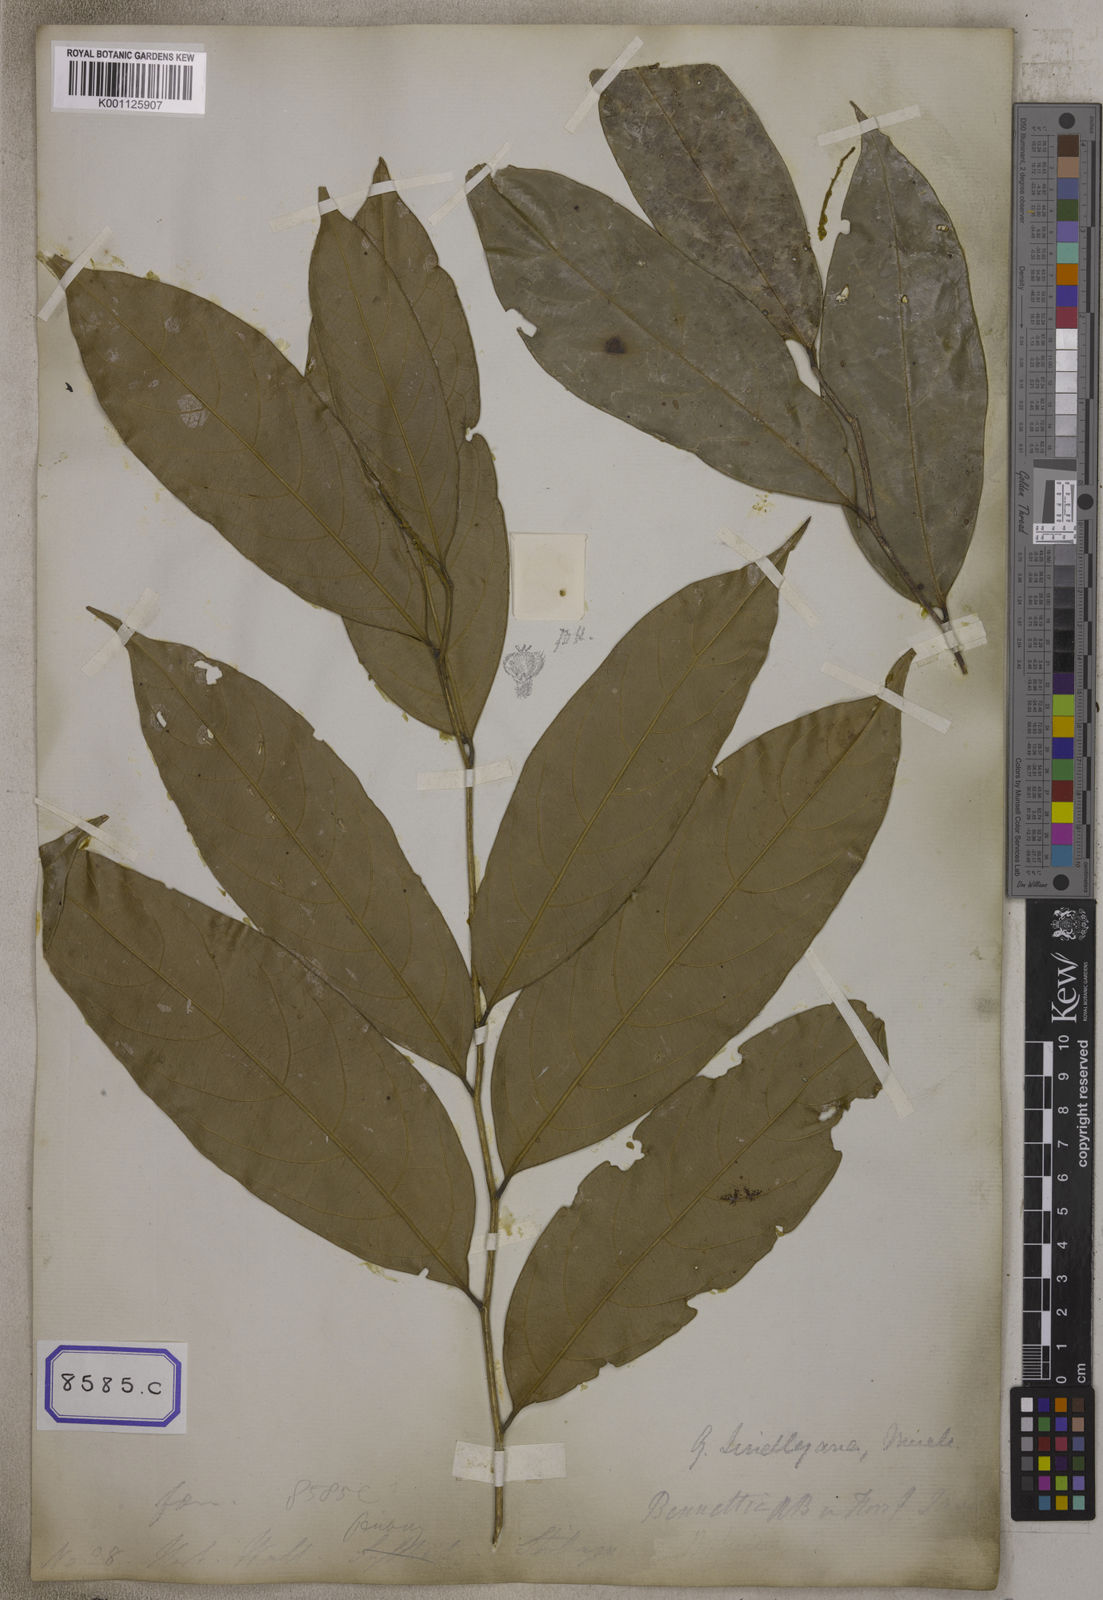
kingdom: Plantae
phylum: Tracheophyta
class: Magnoliopsida
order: Malpighiales
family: Pandaceae
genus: Galearia
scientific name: Galearia
